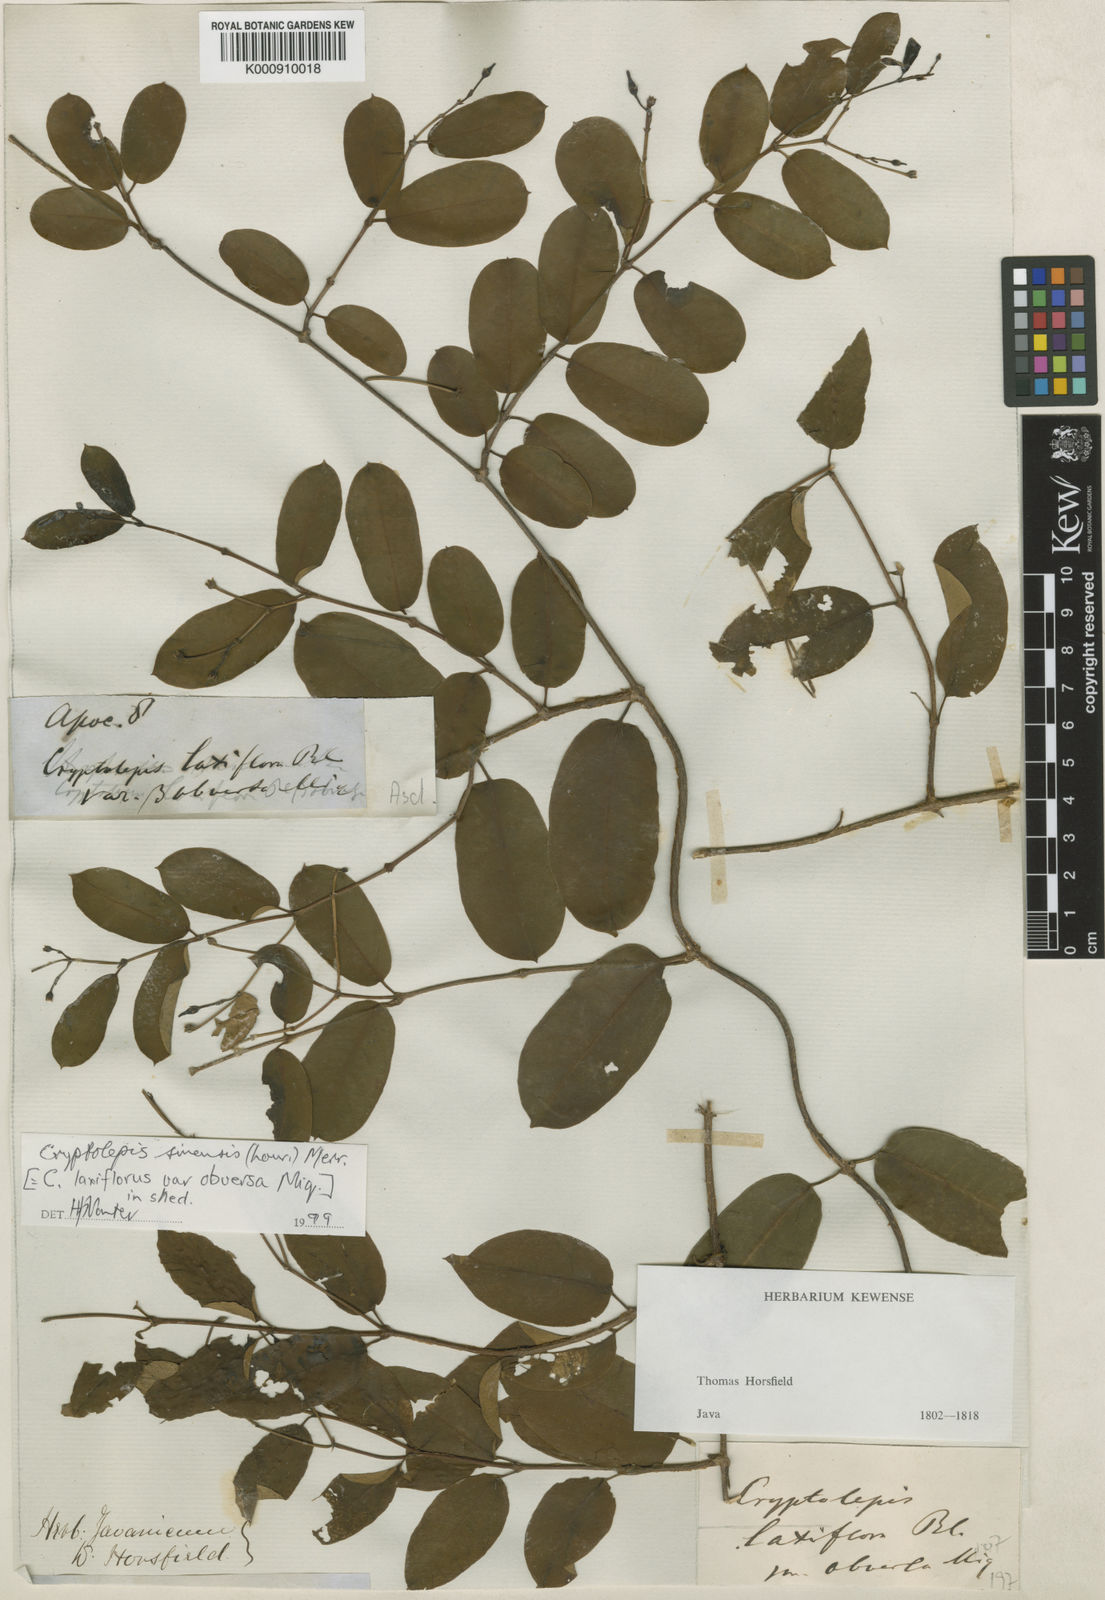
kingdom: Plantae
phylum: Tracheophyta
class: Magnoliopsida
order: Gentianales
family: Apocynaceae
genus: Cryptolepis
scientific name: Cryptolepis sinensis
